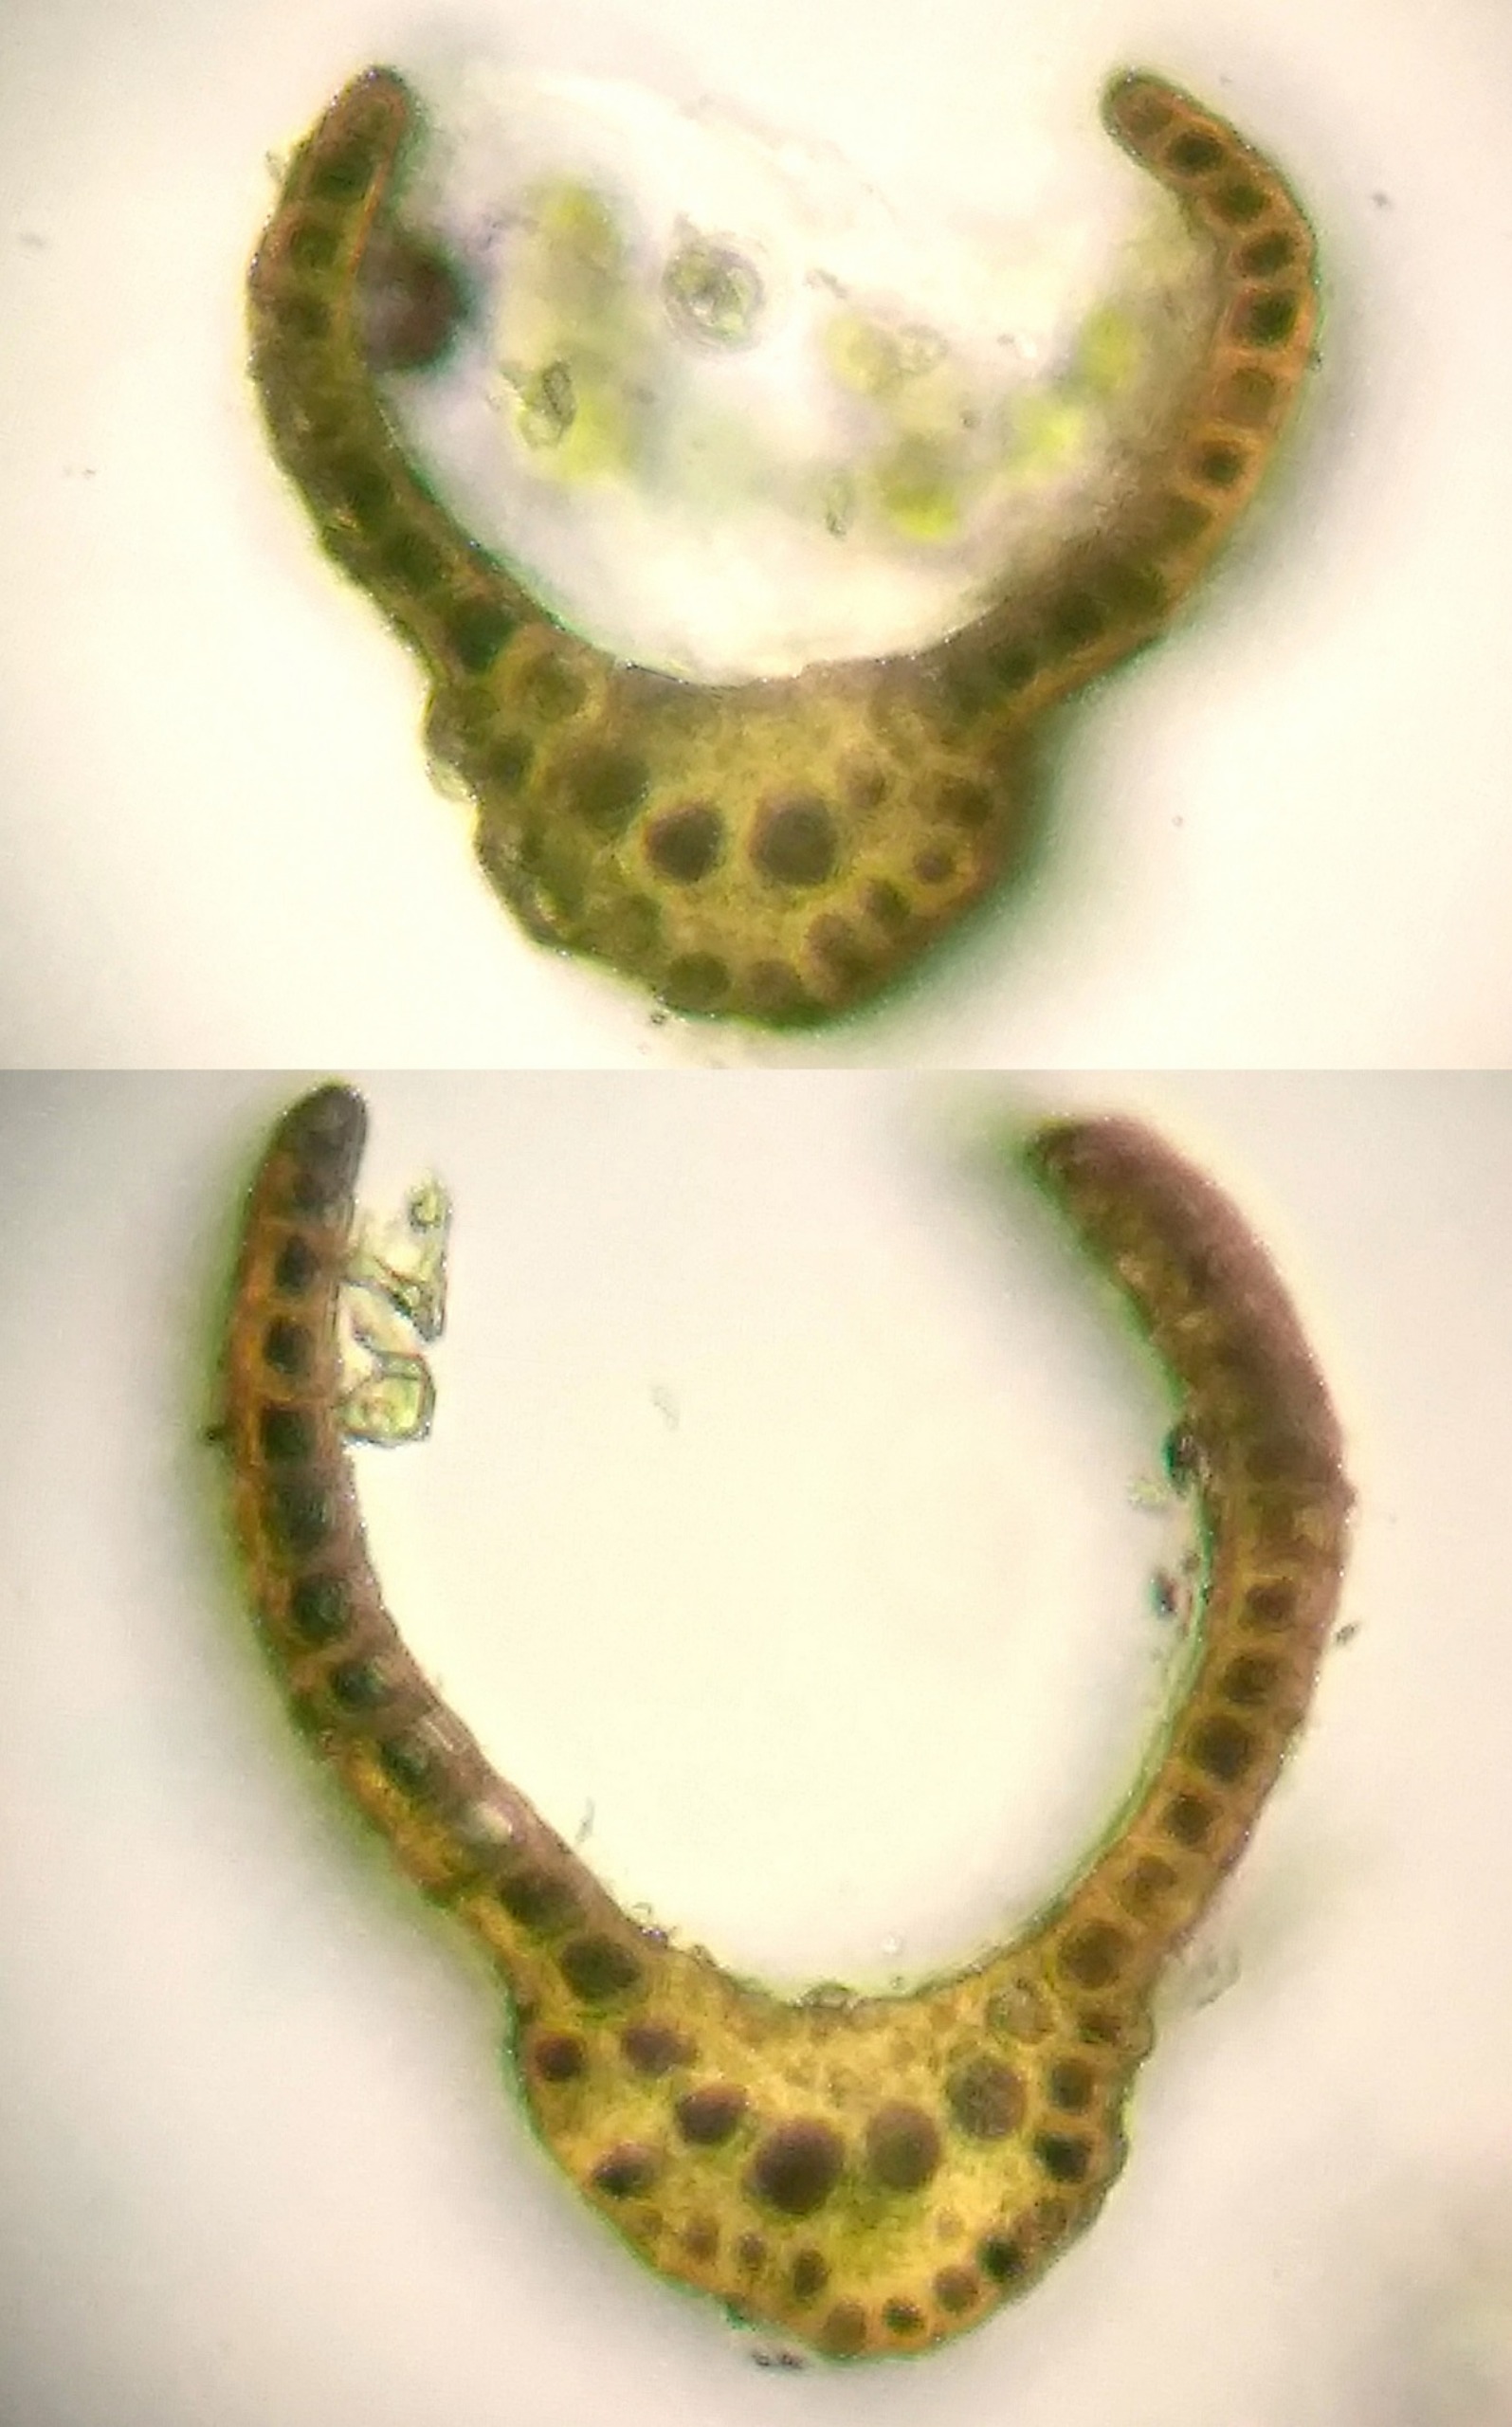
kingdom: Plantae
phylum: Bryophyta
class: Bryopsida
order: Dicranales
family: Dicranaceae
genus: Dicranum
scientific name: Dicranum fuscescens
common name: Mørk kløvtand
